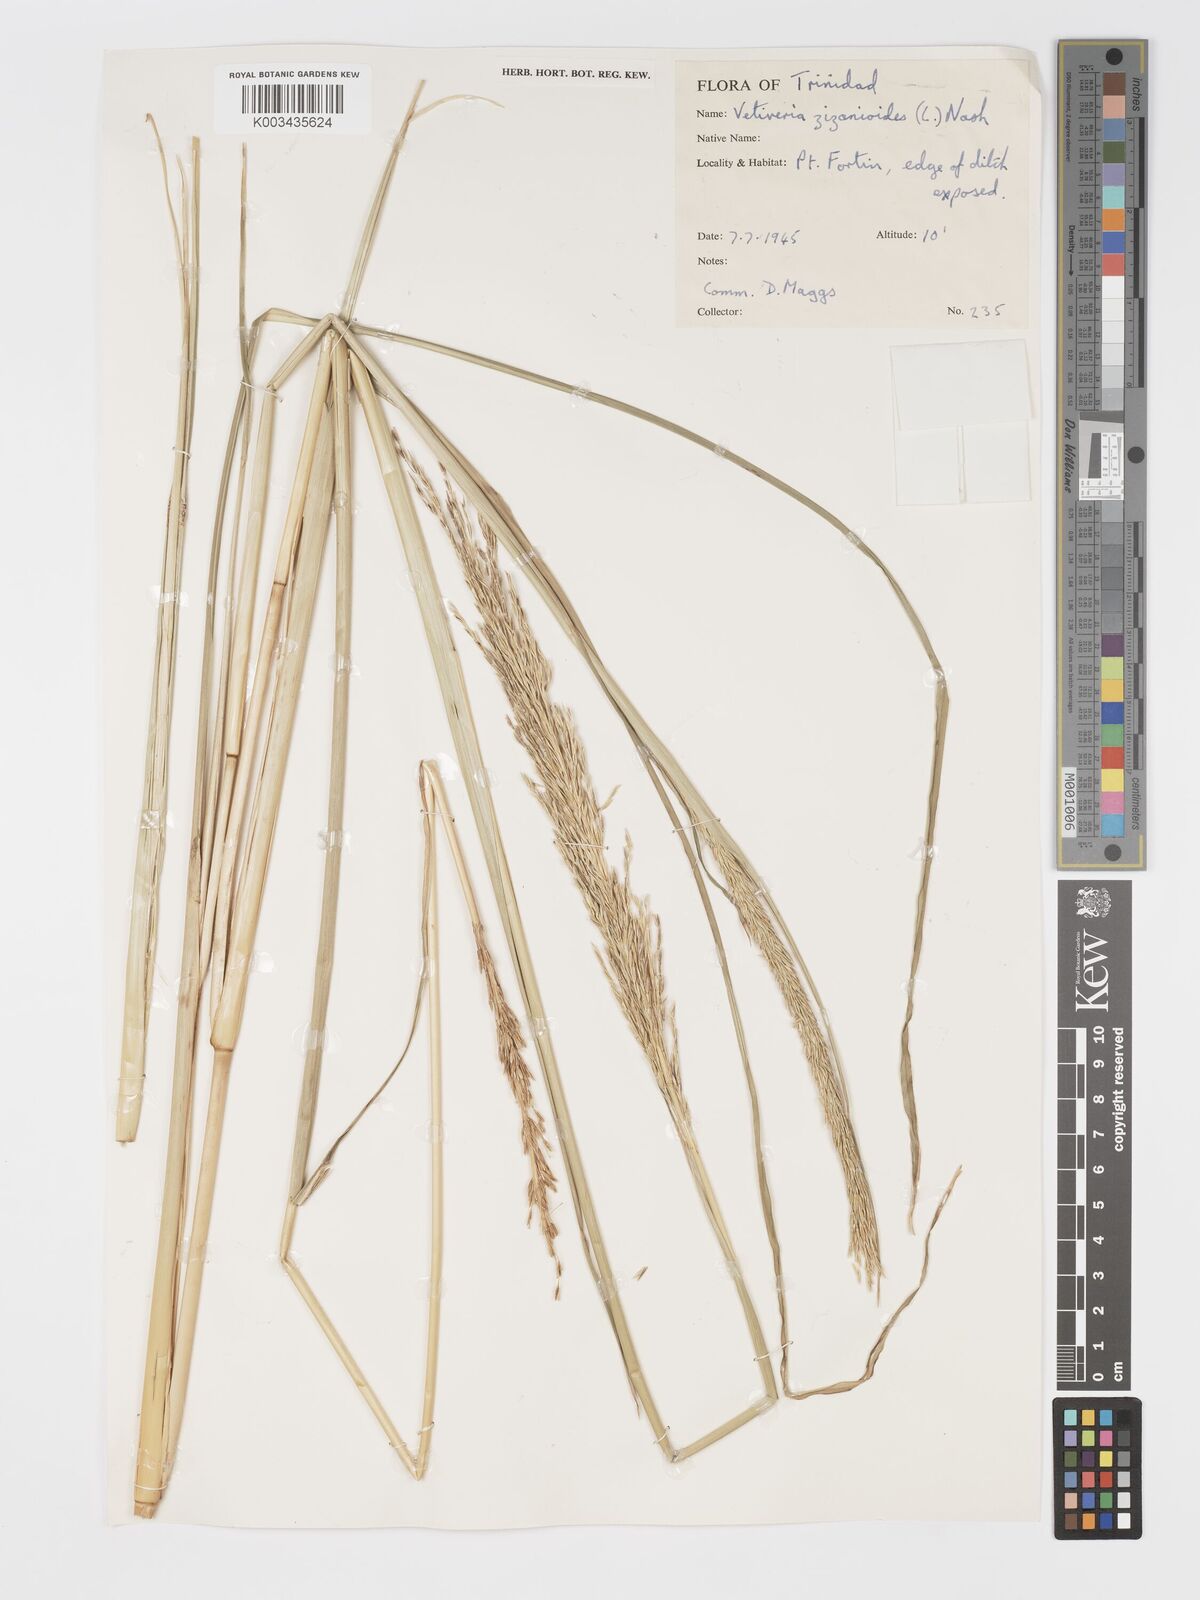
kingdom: Plantae
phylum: Tracheophyta
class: Liliopsida
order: Poales
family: Poaceae
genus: Chrysopogon
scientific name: Chrysopogon zizanioides
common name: False beardgrass
